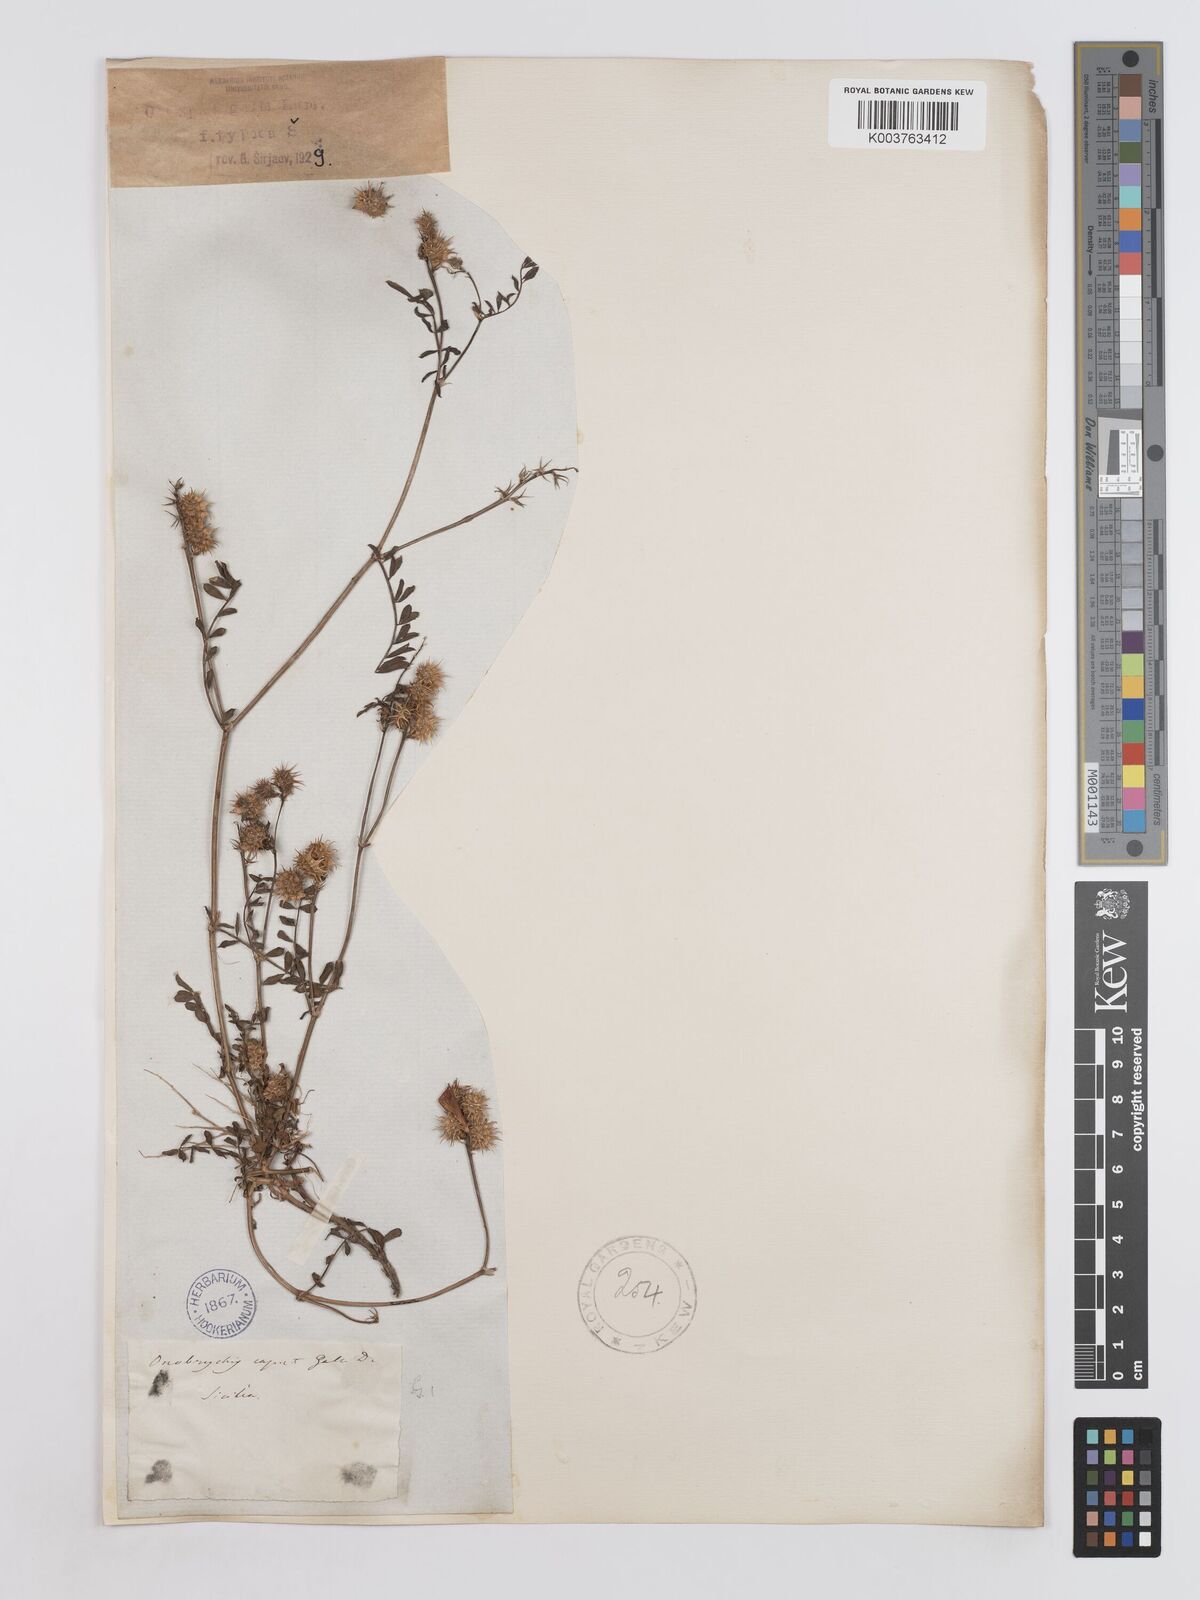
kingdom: Plantae
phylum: Tracheophyta
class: Magnoliopsida
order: Fabales
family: Fabaceae
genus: Onobrychis
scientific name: Onobrychis caput-galli
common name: Cockscomb sainfoin
